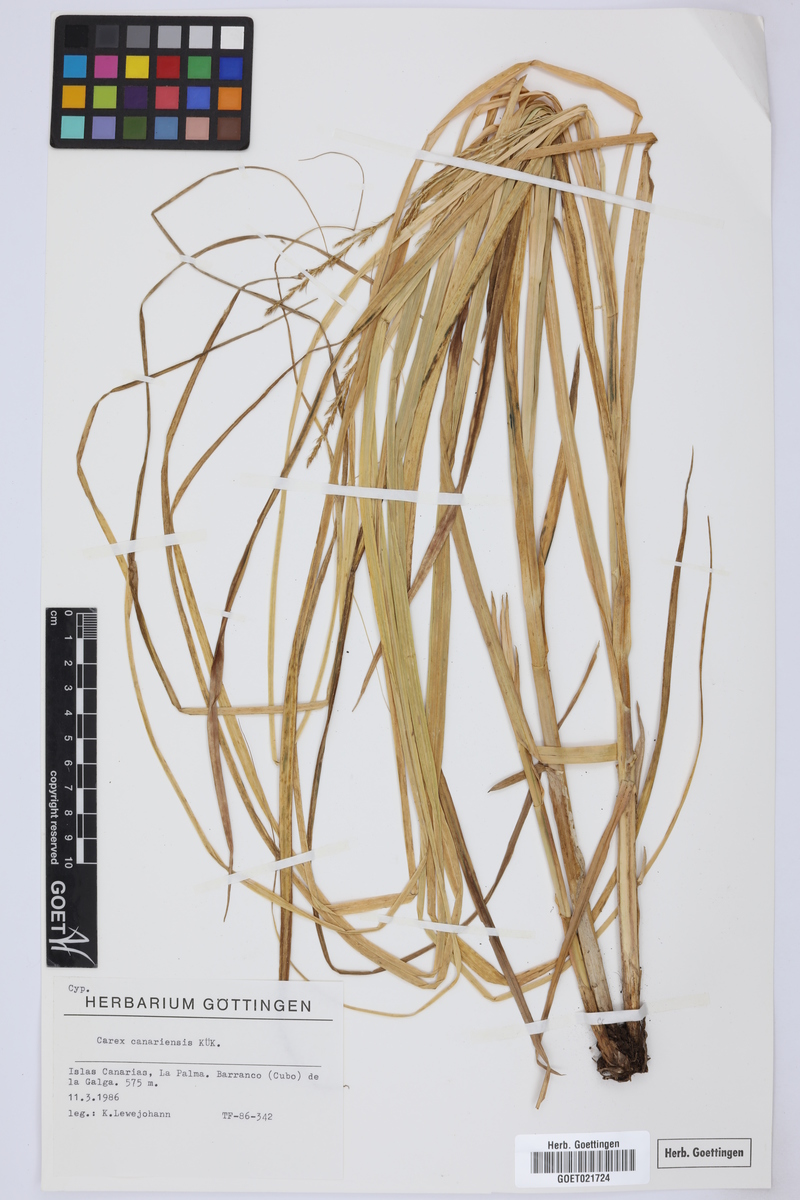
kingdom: Plantae
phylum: Tracheophyta
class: Liliopsida
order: Poales
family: Cyperaceae
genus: Carex
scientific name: Carex canariensis
